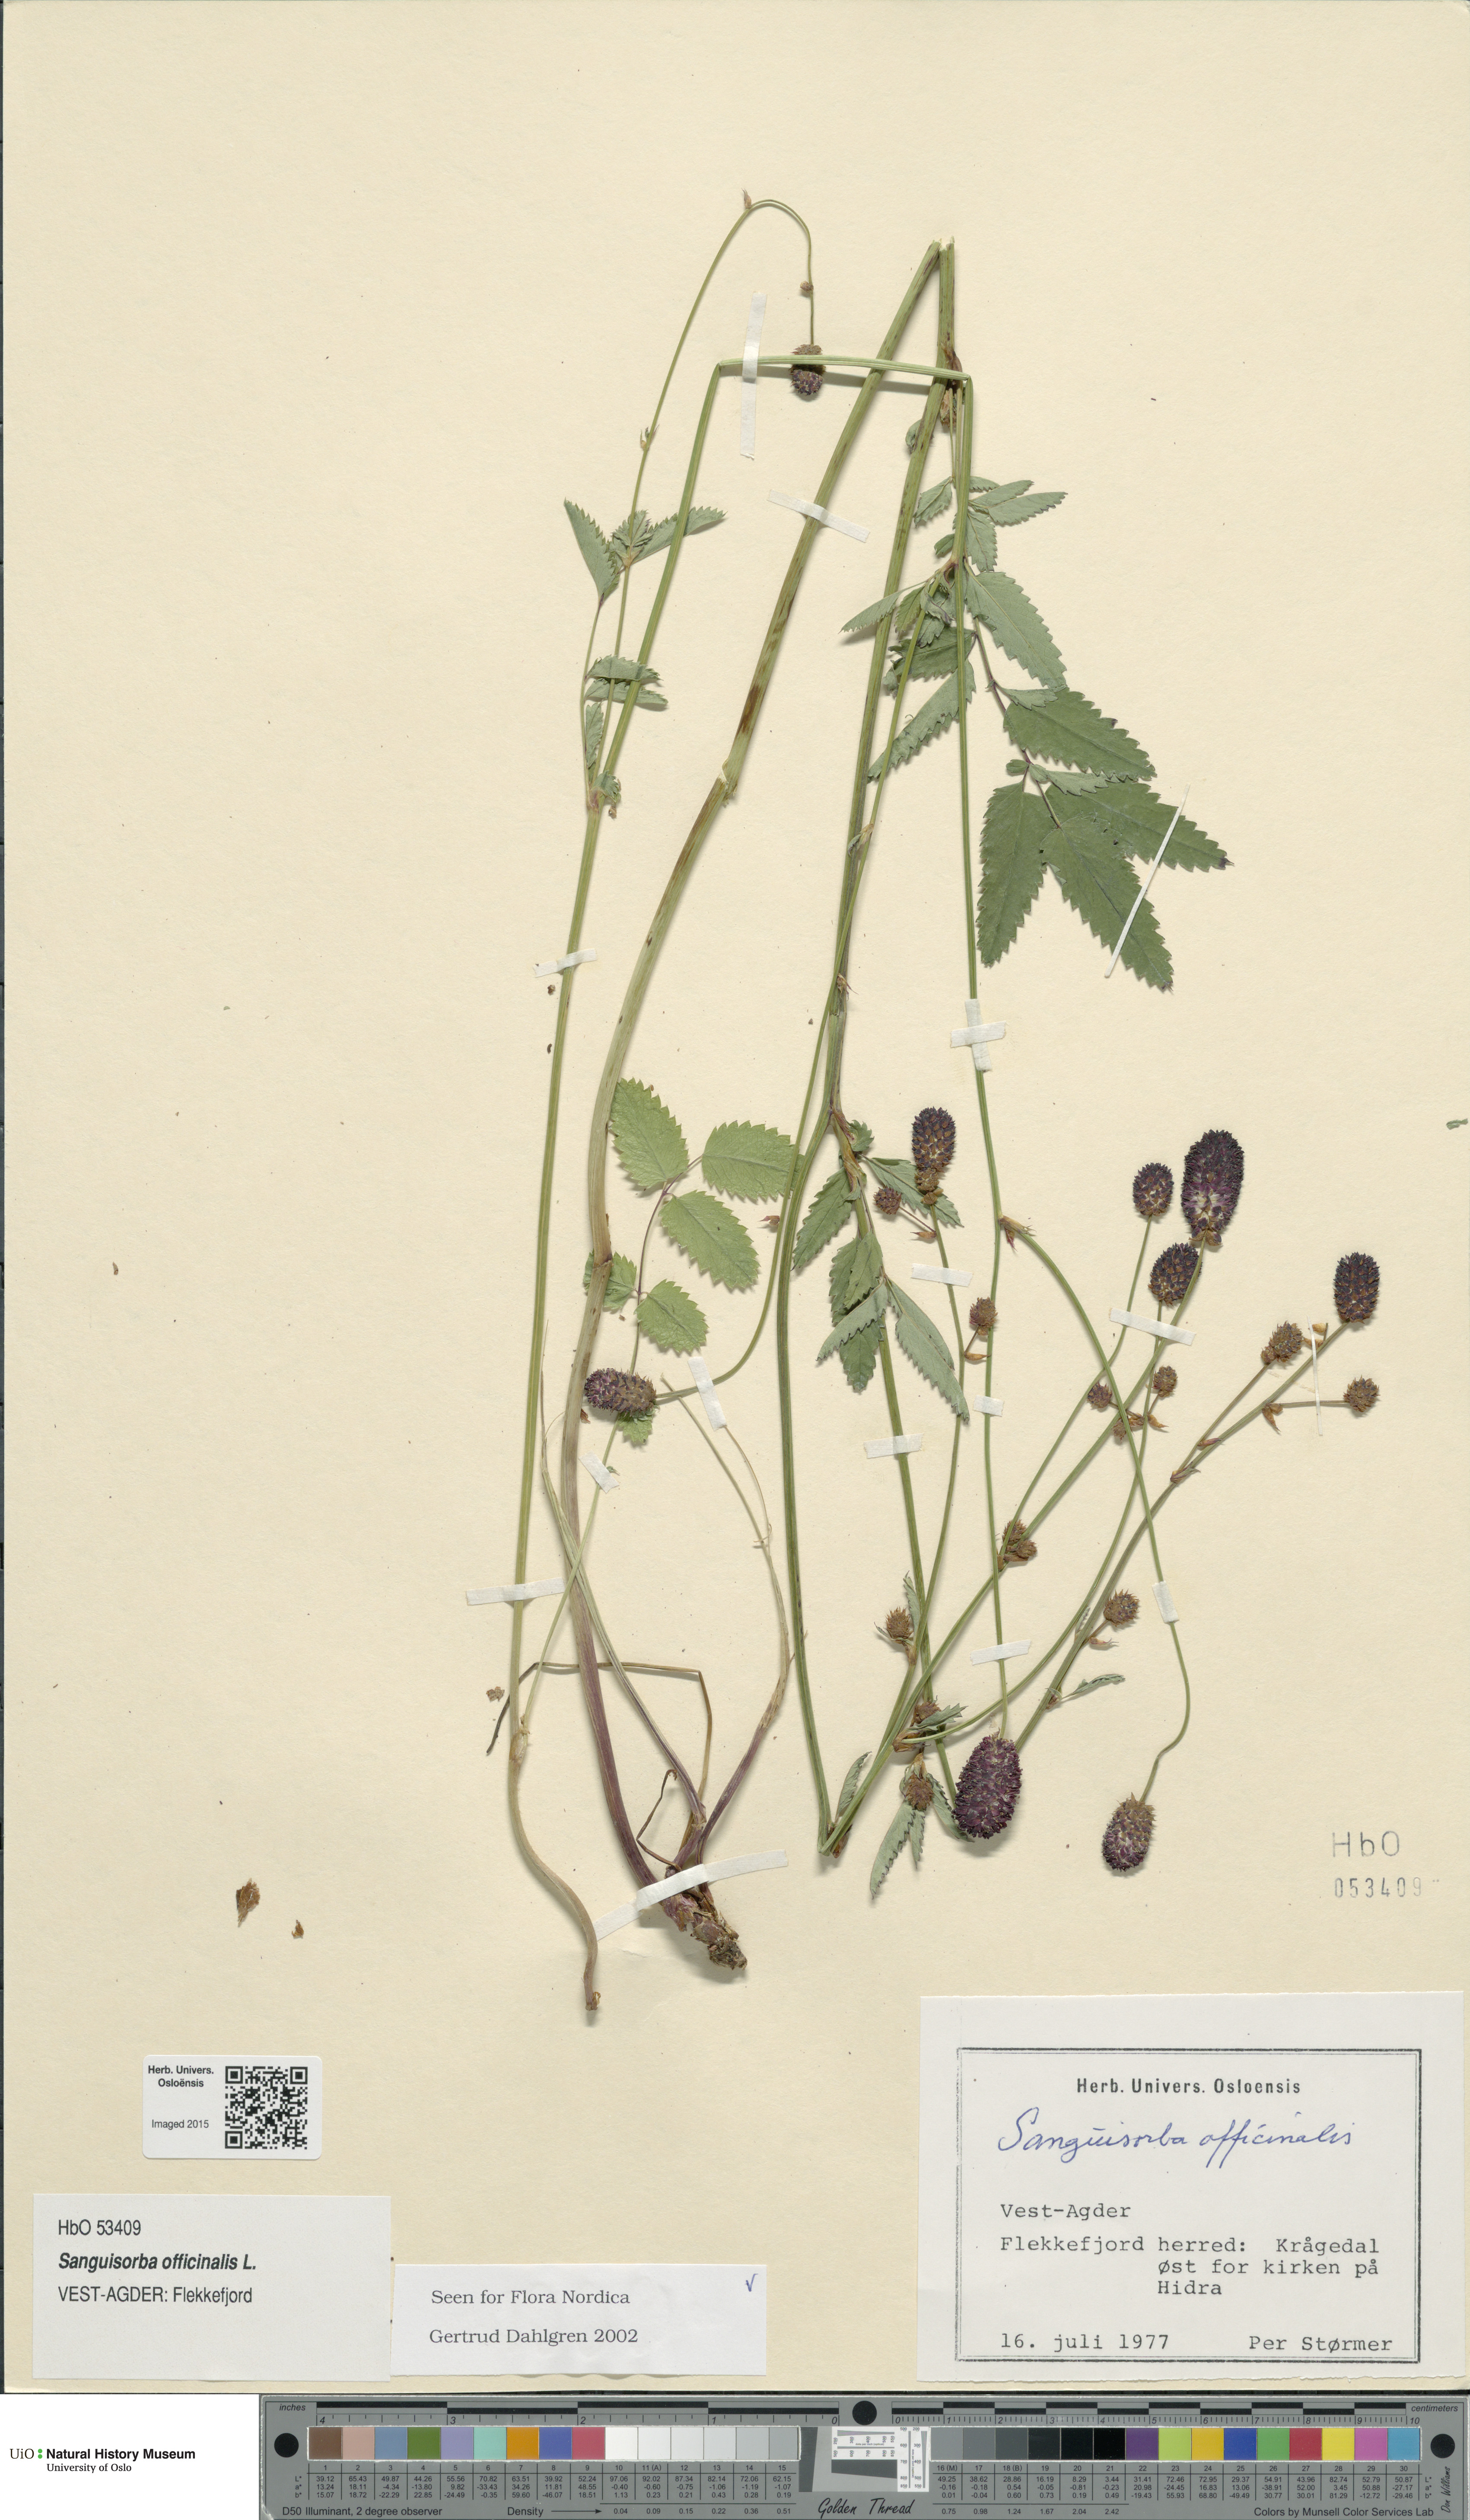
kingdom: Plantae
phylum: Tracheophyta
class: Magnoliopsida
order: Rosales
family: Rosaceae
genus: Sanguisorba
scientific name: Sanguisorba officinalis
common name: Great burnet
